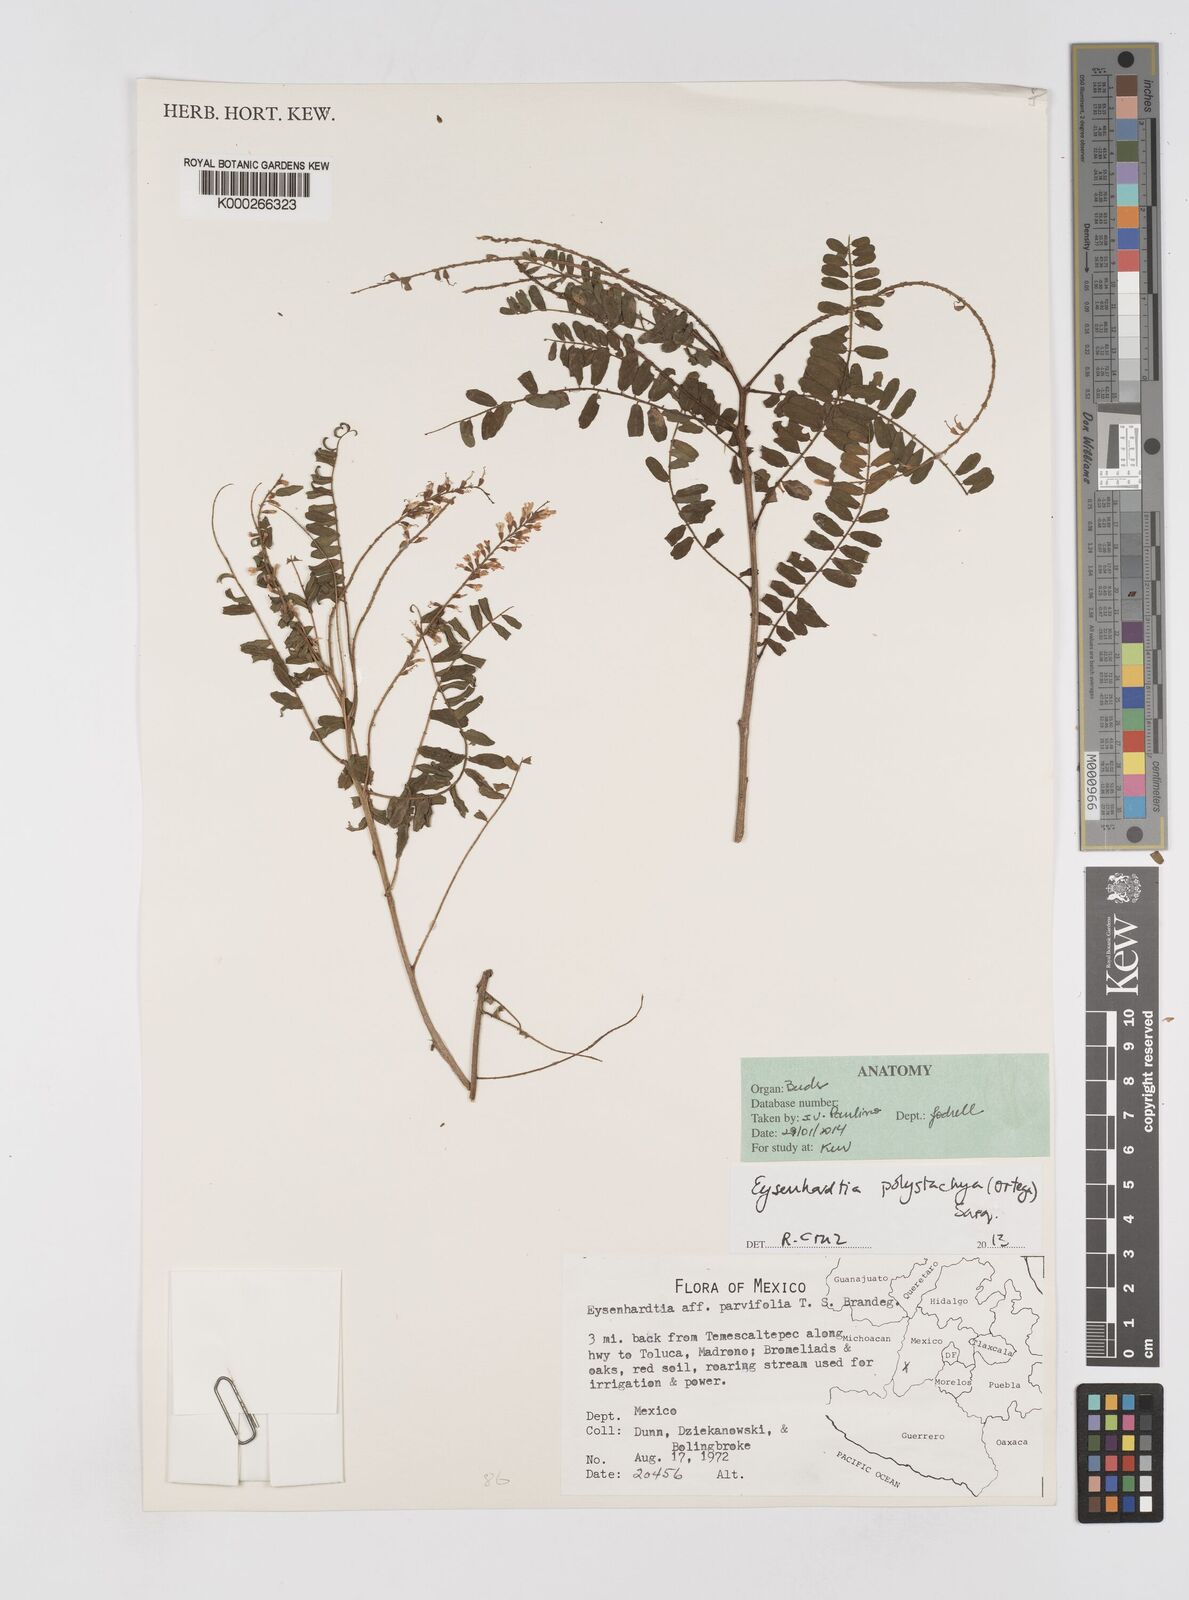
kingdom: Plantae
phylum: Tracheophyta
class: Magnoliopsida
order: Fabales
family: Fabaceae
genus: Eysenhardtia
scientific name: Eysenhardtia polystachya
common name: Kidneywood
